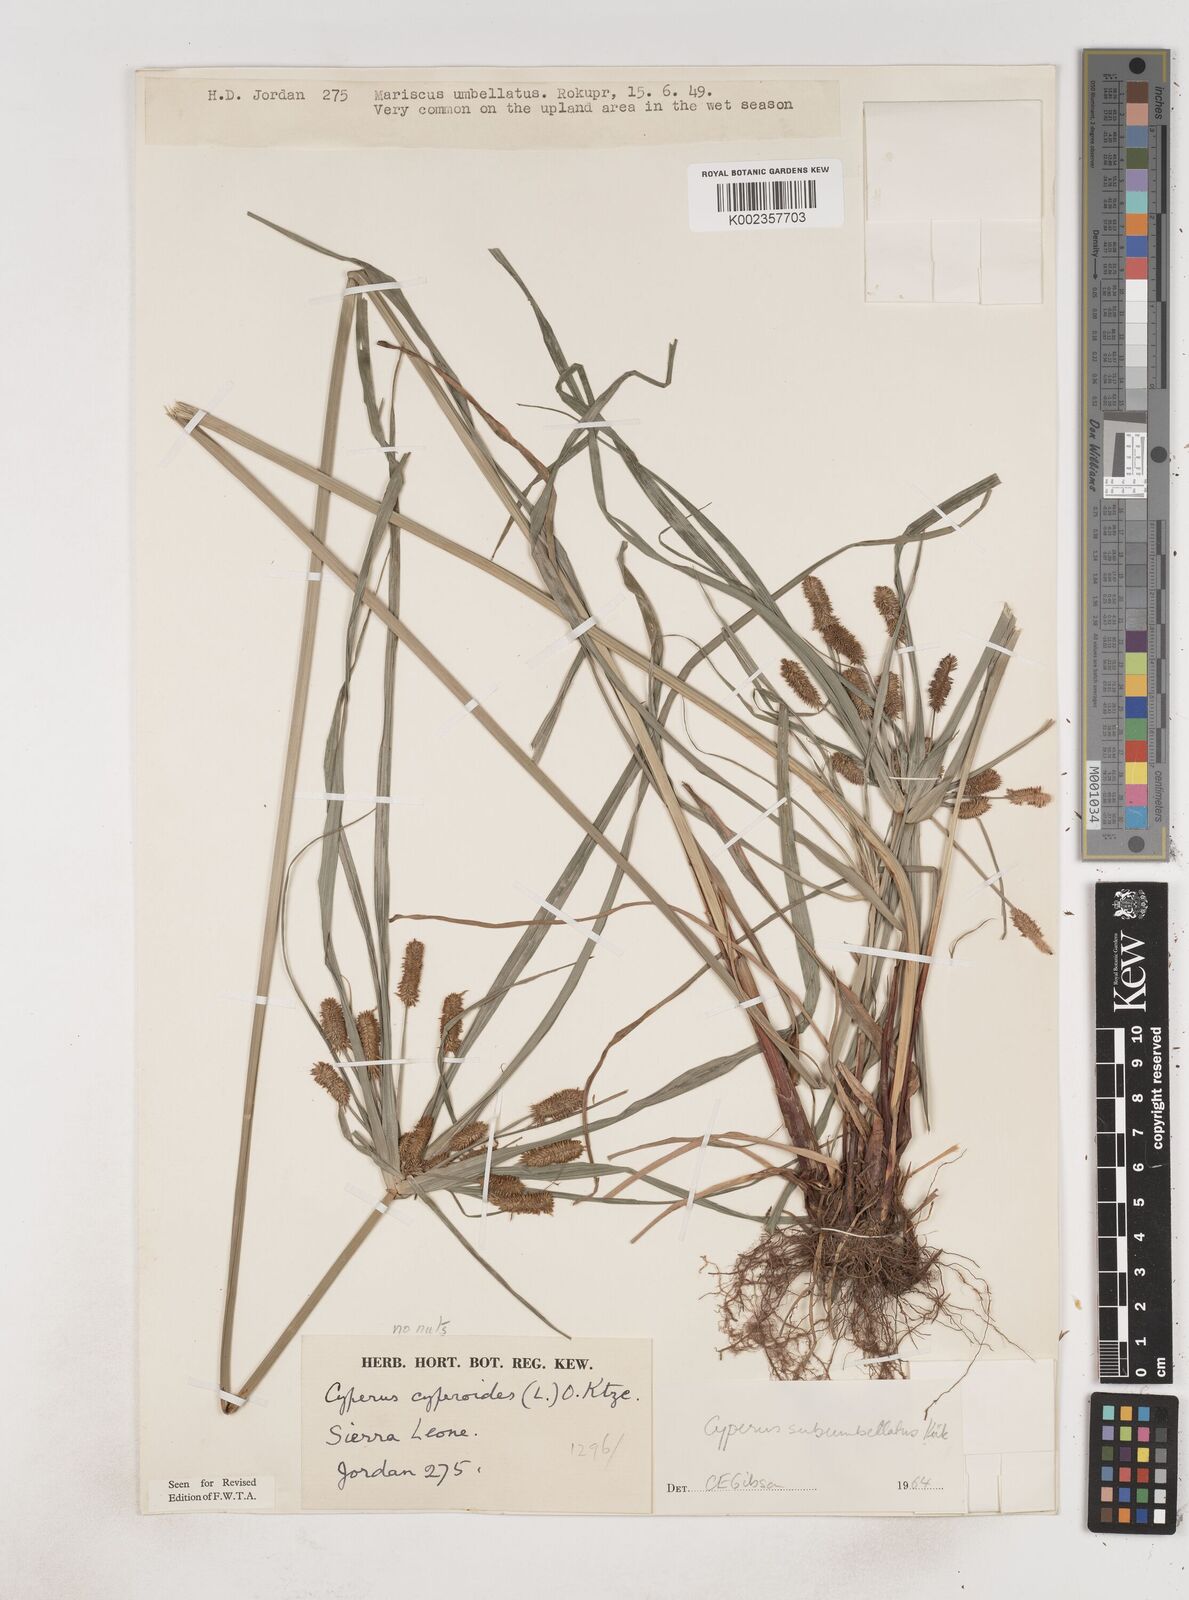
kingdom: Plantae
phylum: Tracheophyta
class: Liliopsida
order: Poales
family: Cyperaceae
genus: Cyperus
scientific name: Cyperus sublimis
